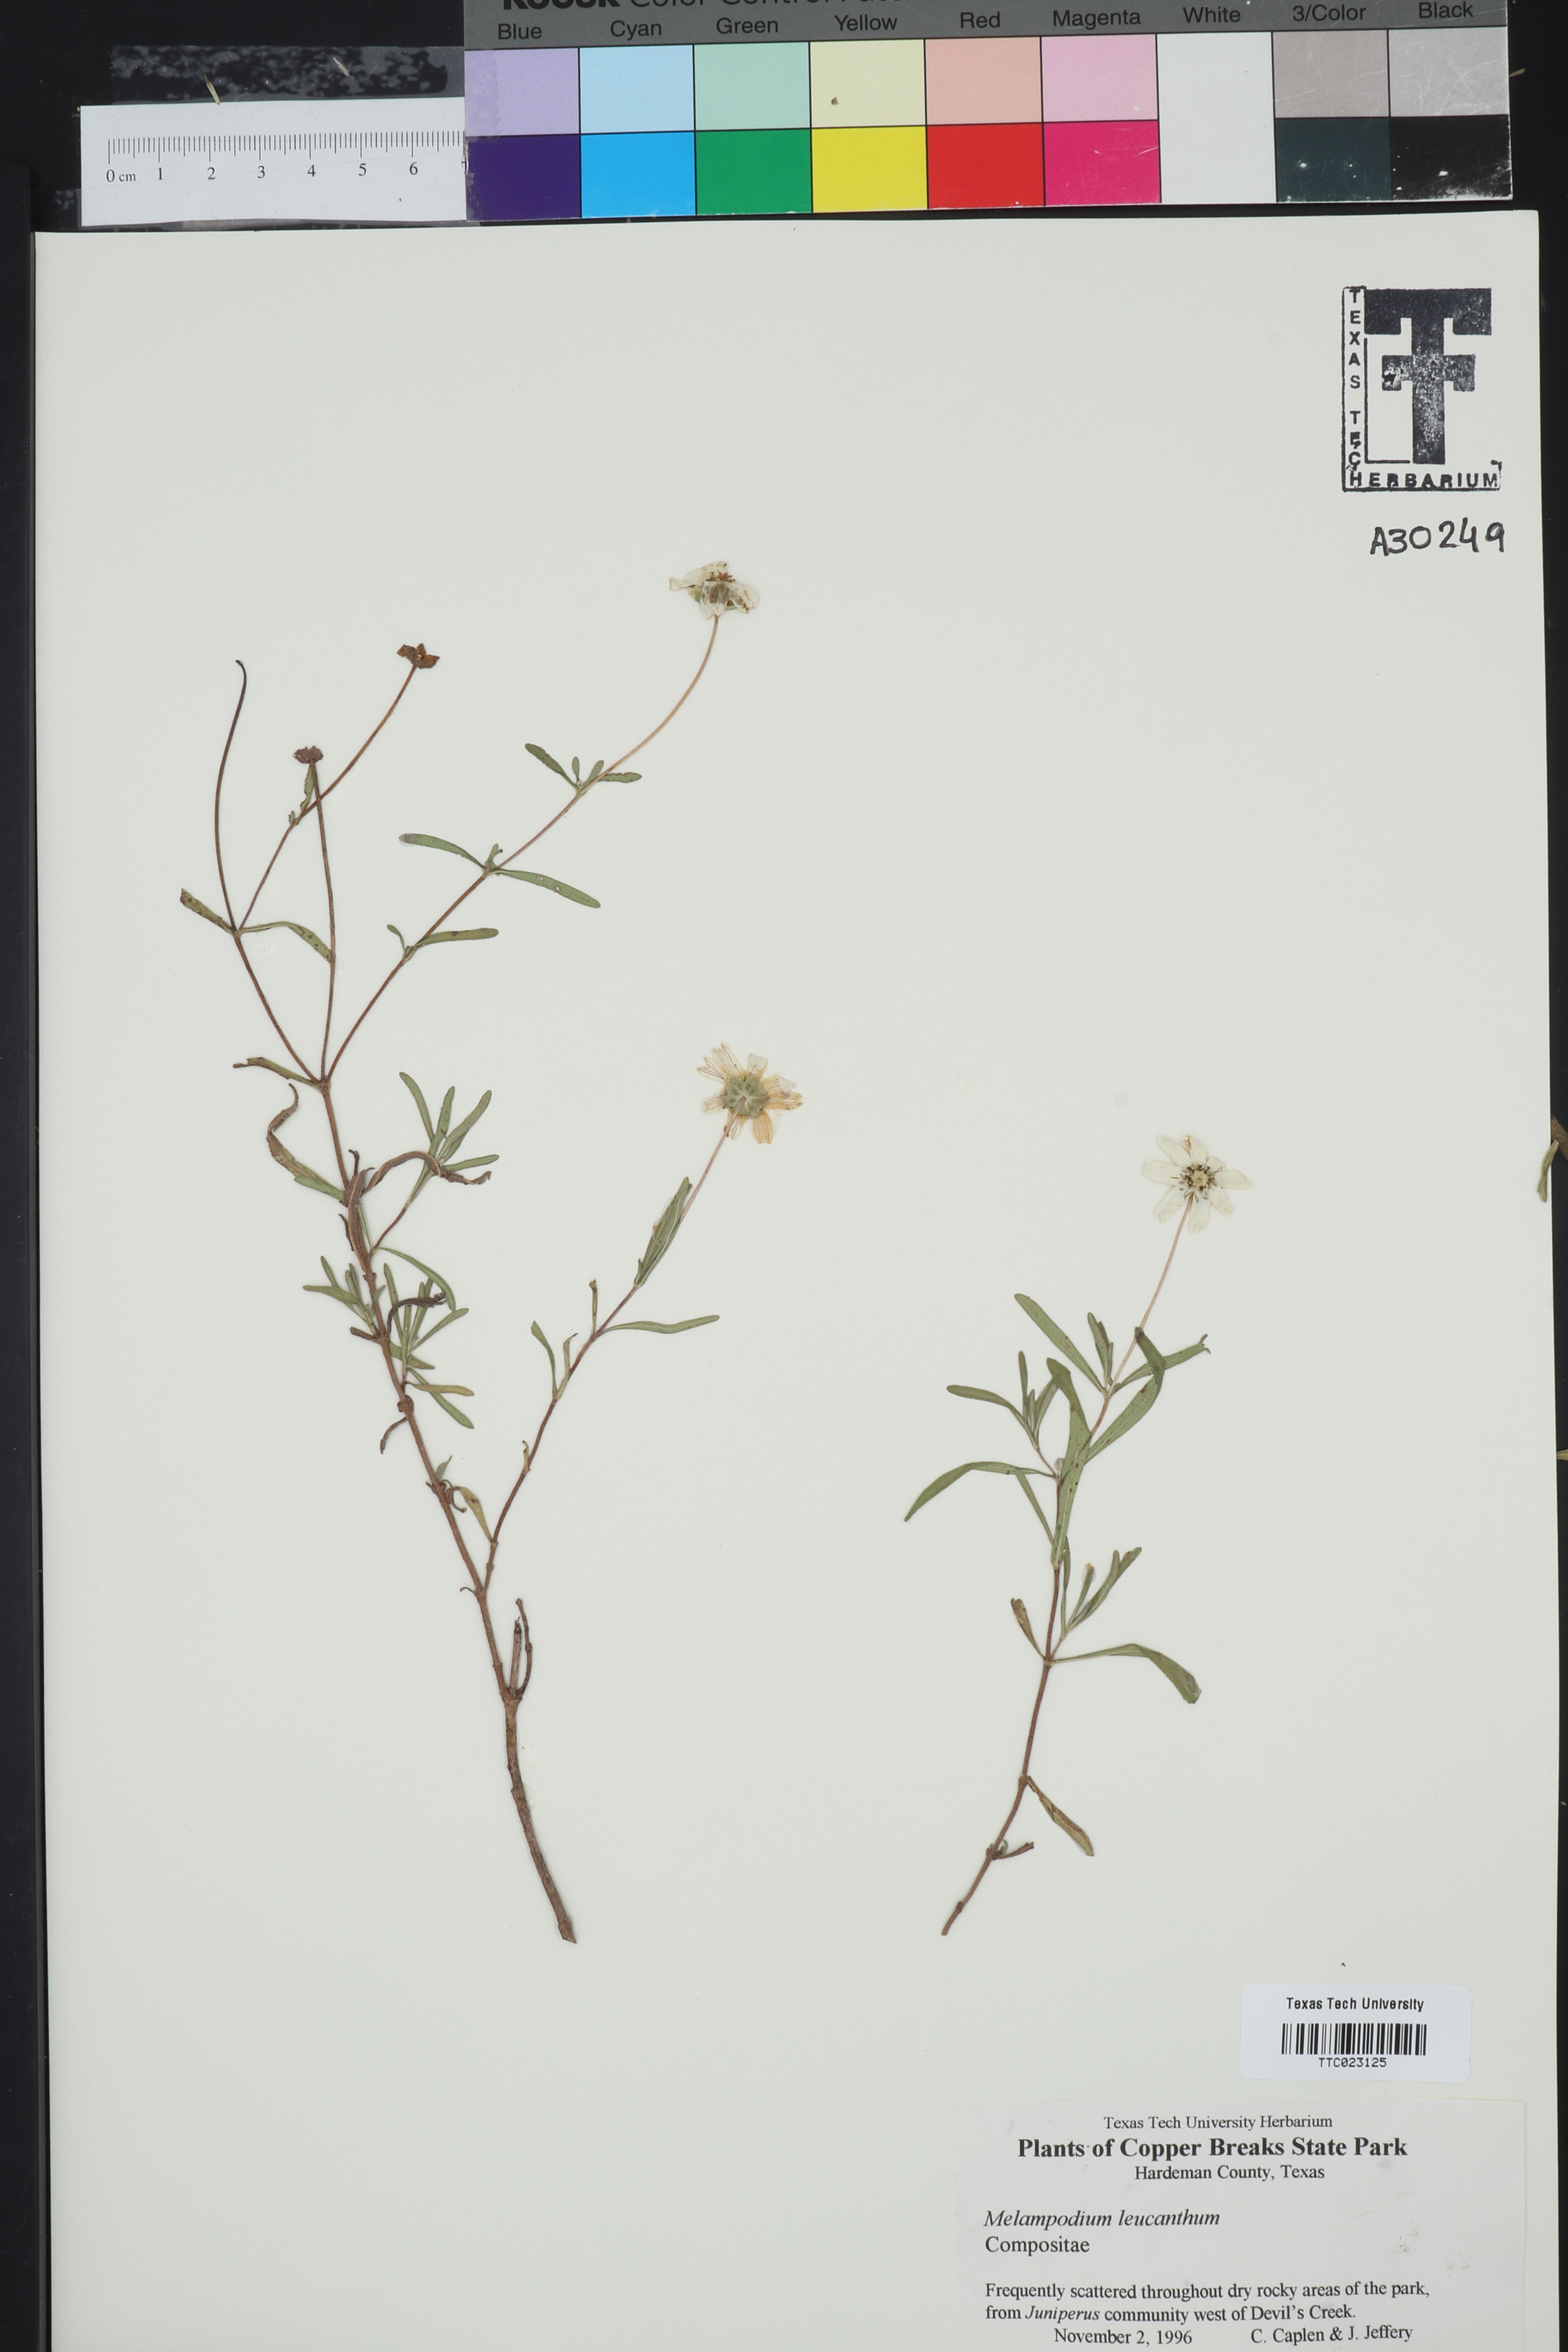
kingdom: Plantae
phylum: Tracheophyta
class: Magnoliopsida
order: Asterales
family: Asteraceae
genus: Melampodium
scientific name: Melampodium leucanthum
